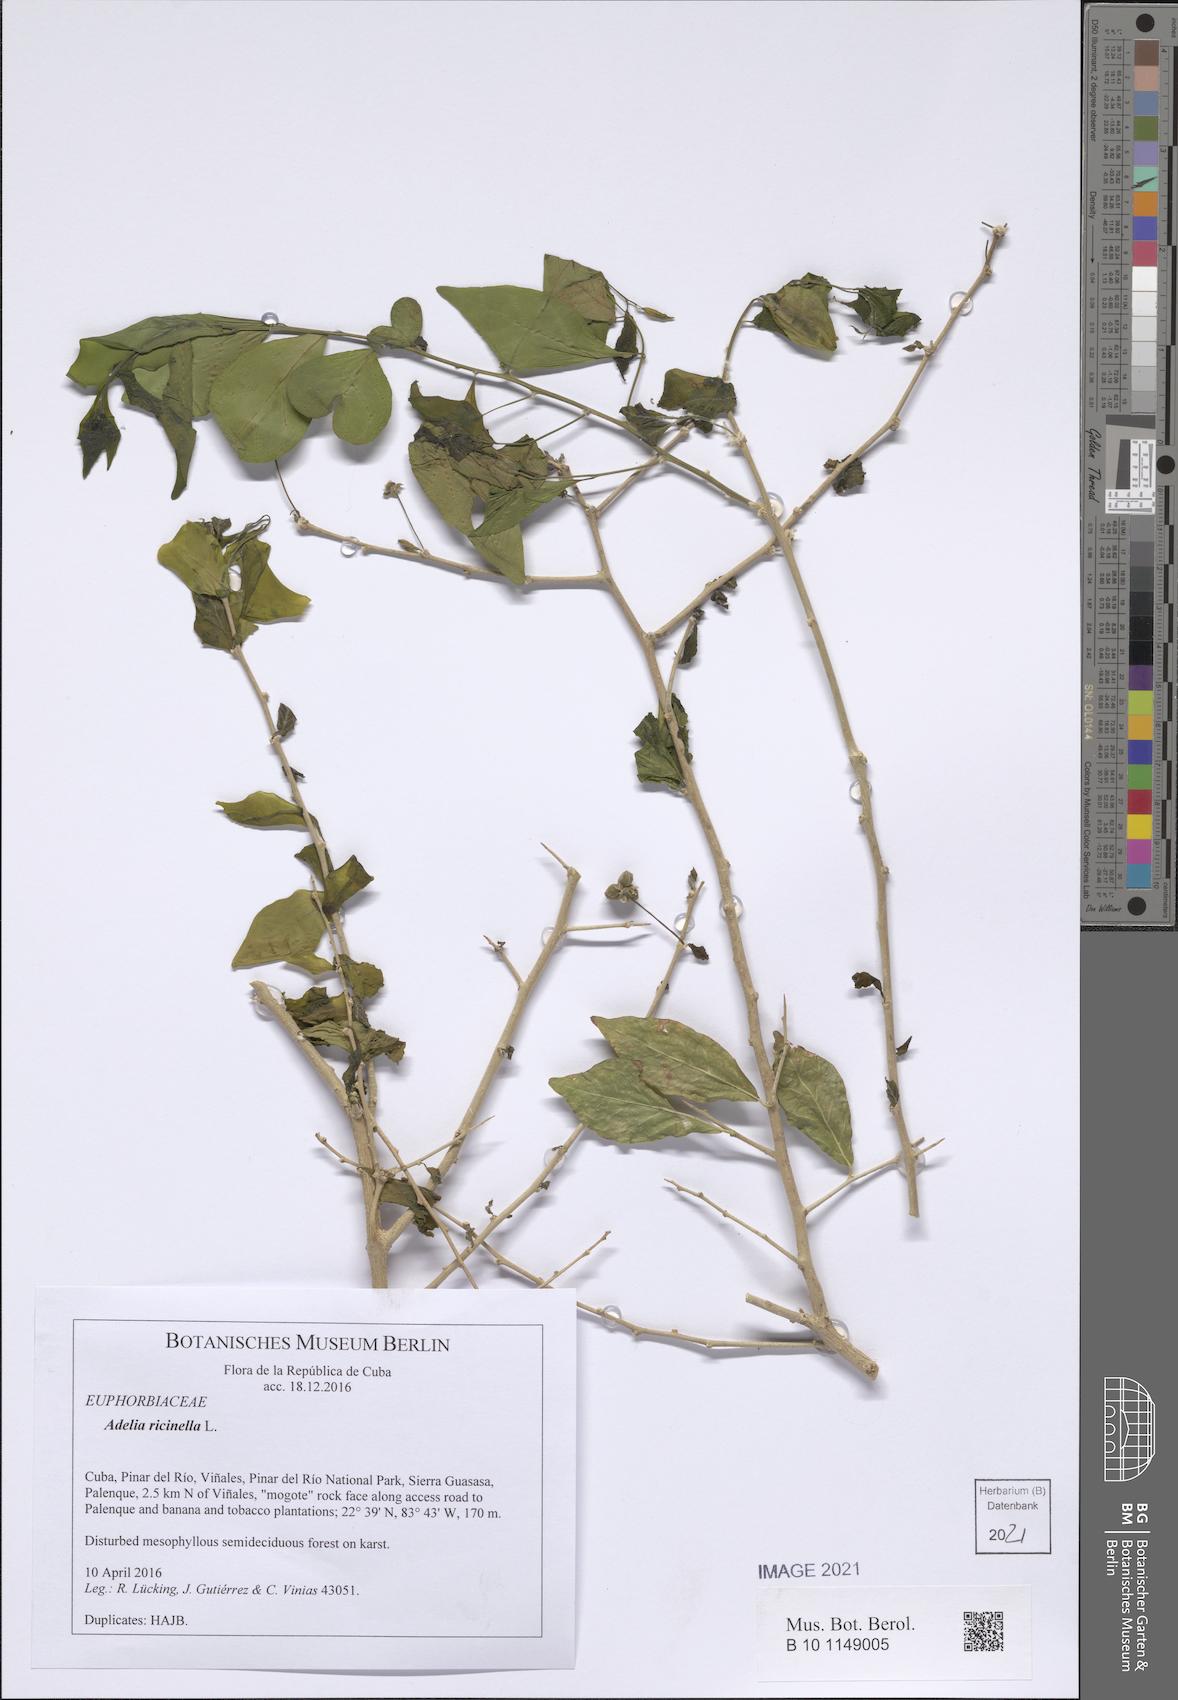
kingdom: Plantae
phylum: Tracheophyta
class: Magnoliopsida
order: Malpighiales
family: Euphorbiaceae
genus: Adelia
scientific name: Adelia ricinella
